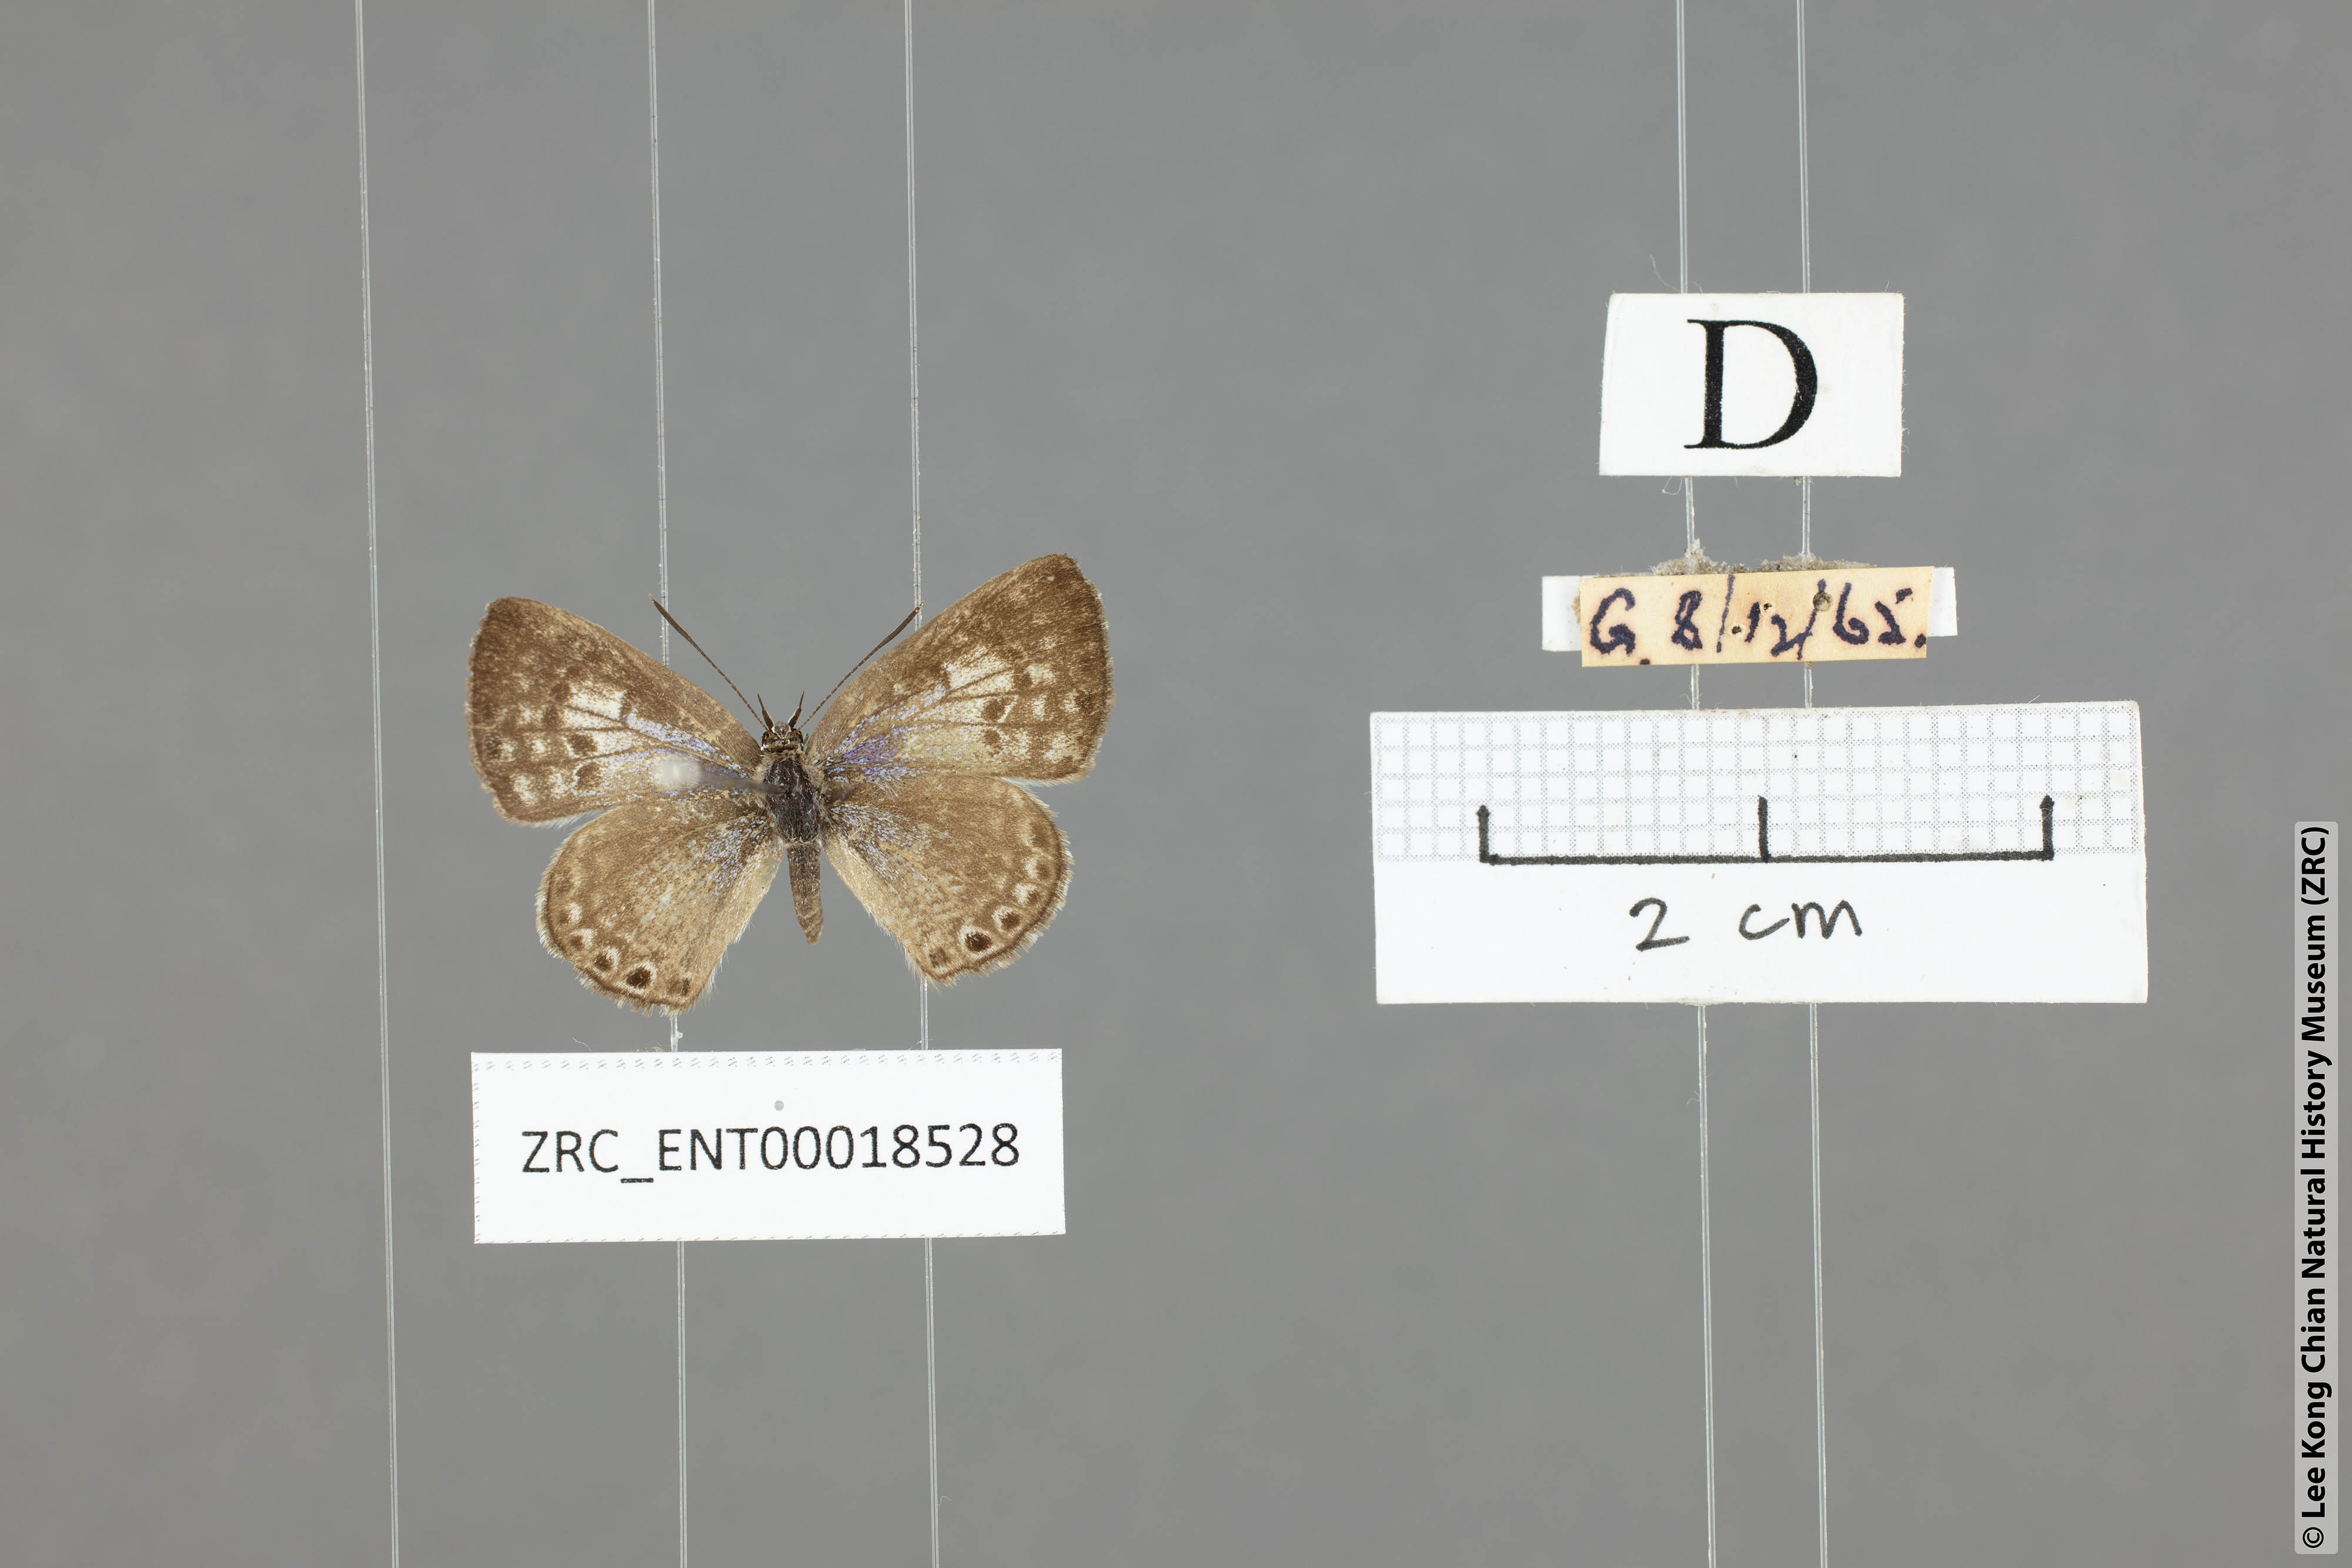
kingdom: Animalia
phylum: Arthropoda
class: Insecta
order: Lepidoptera
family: Lycaenidae
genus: Niphanda
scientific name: Niphanda asialis
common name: White-banded pierrot
